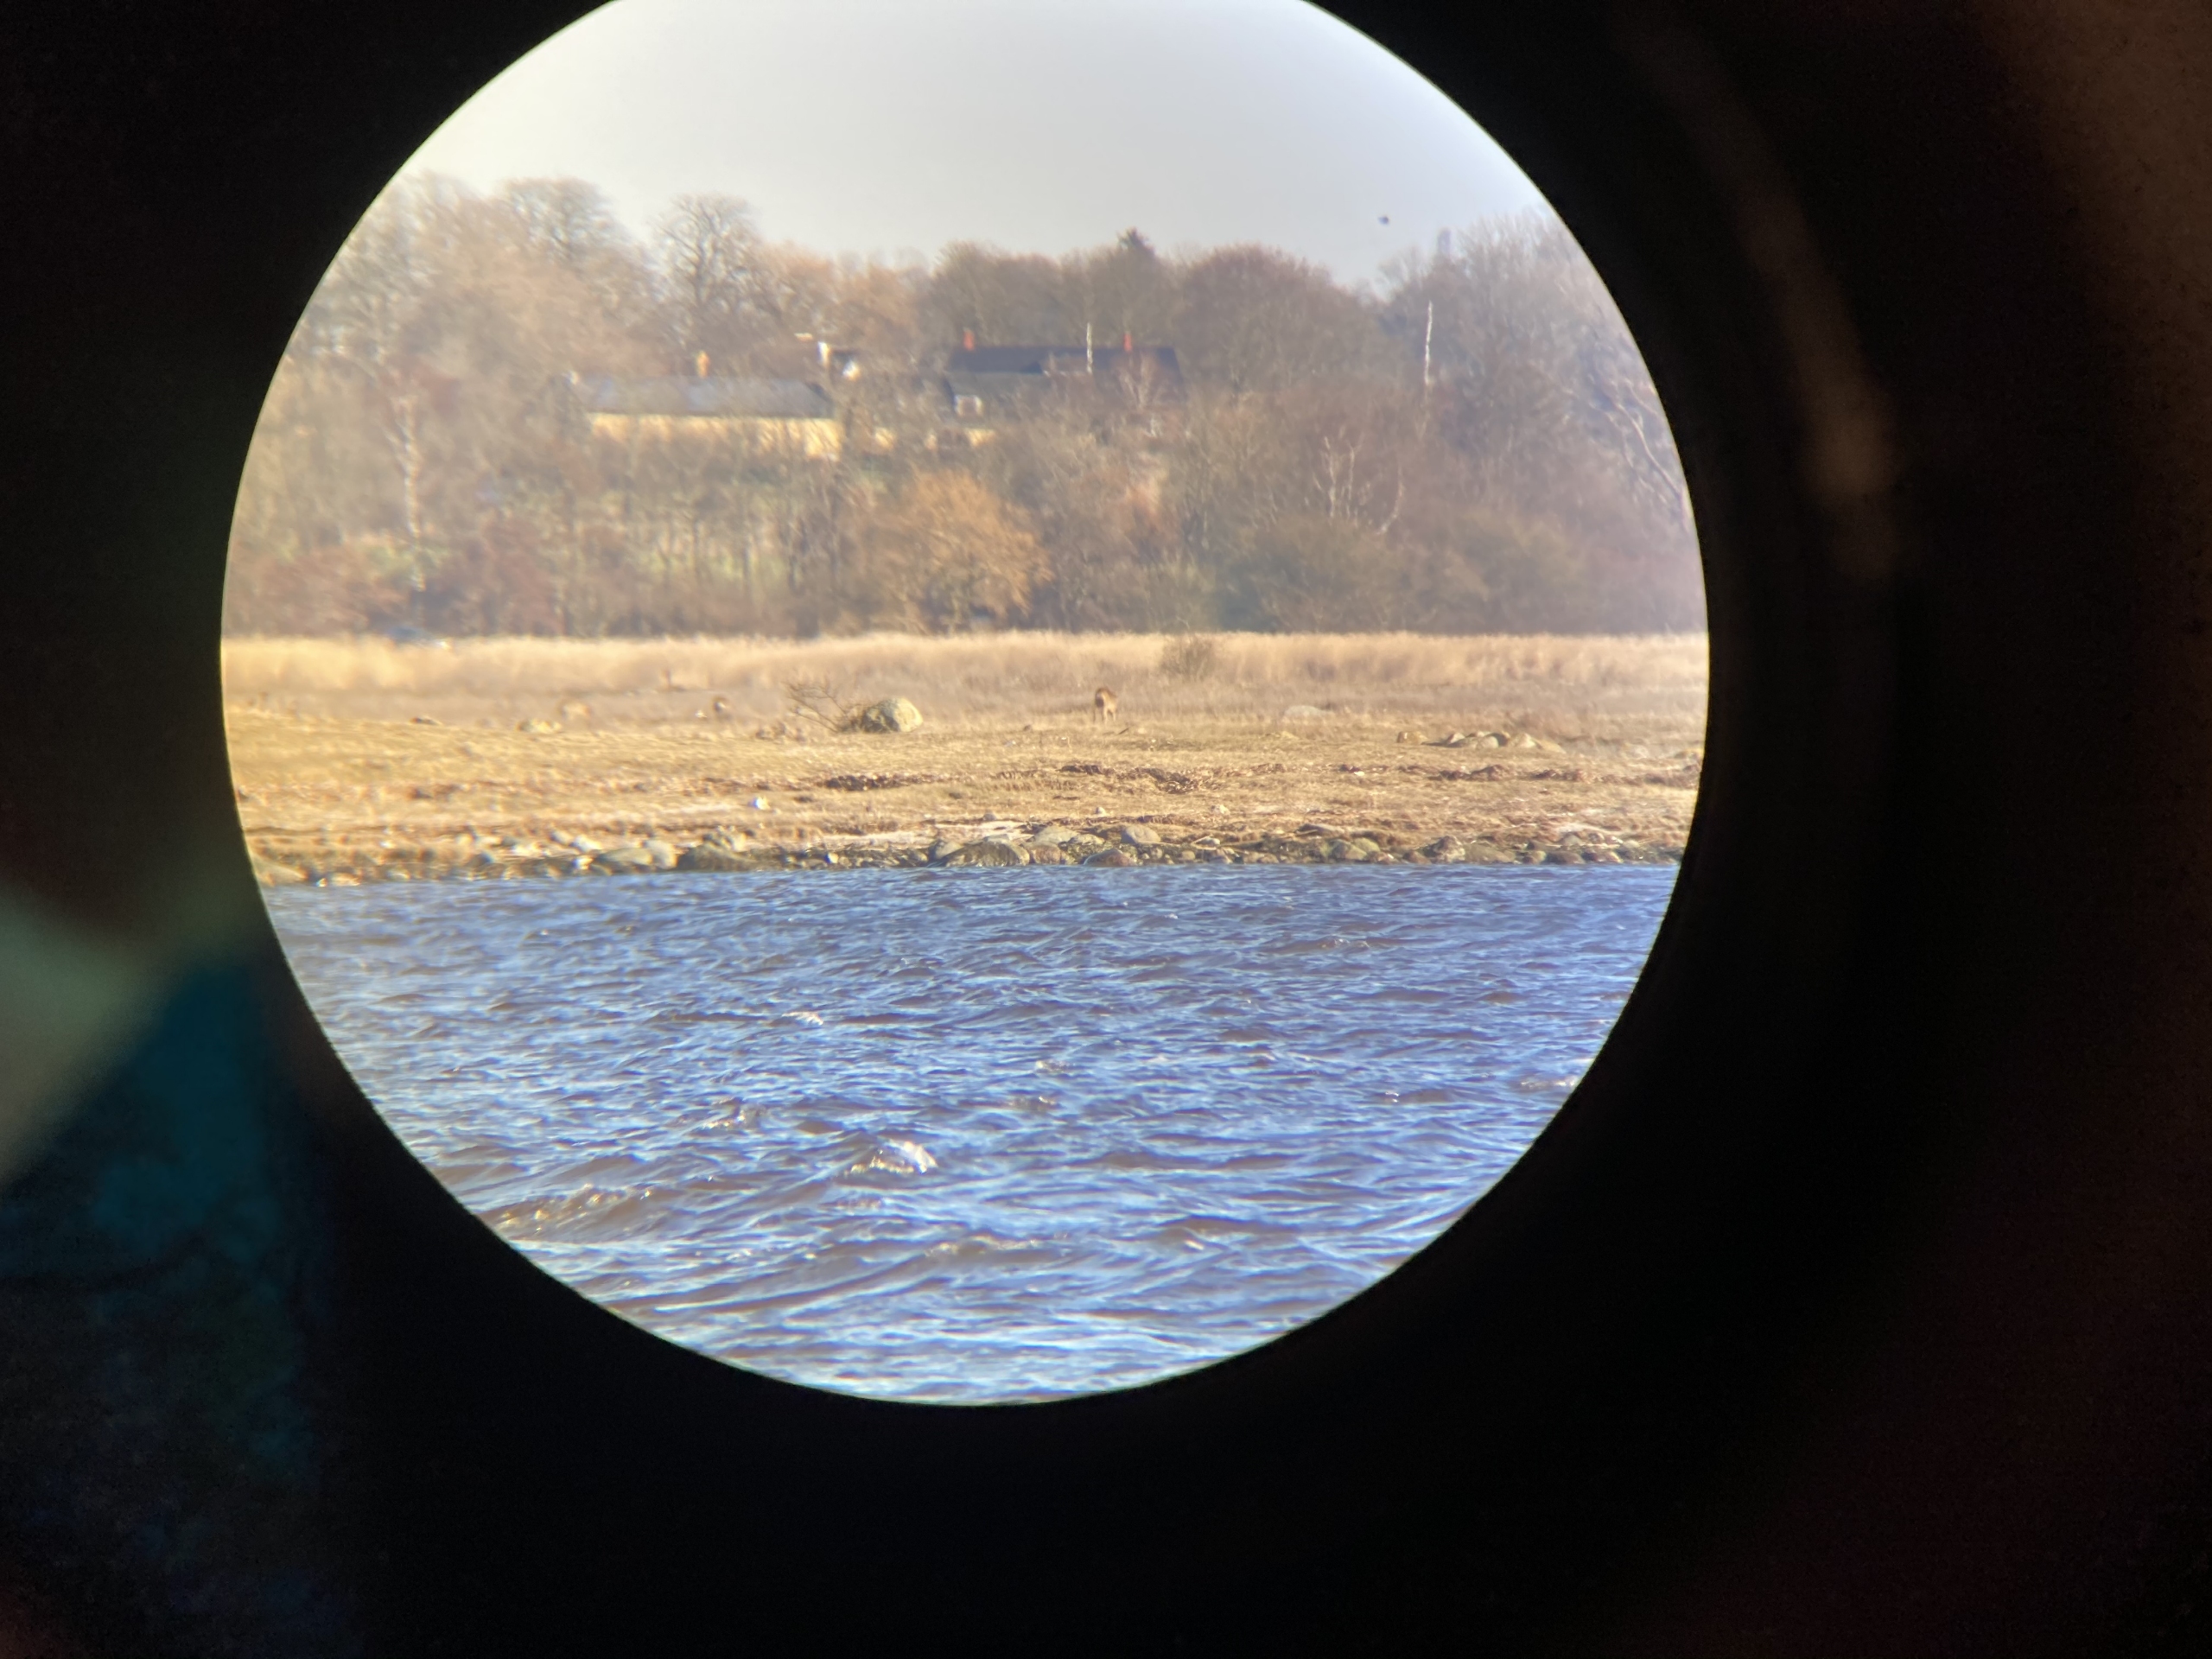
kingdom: Animalia
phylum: Chordata
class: Mammalia
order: Artiodactyla
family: Cervidae
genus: Capreolus
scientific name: Capreolus capreolus
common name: Rådyr
